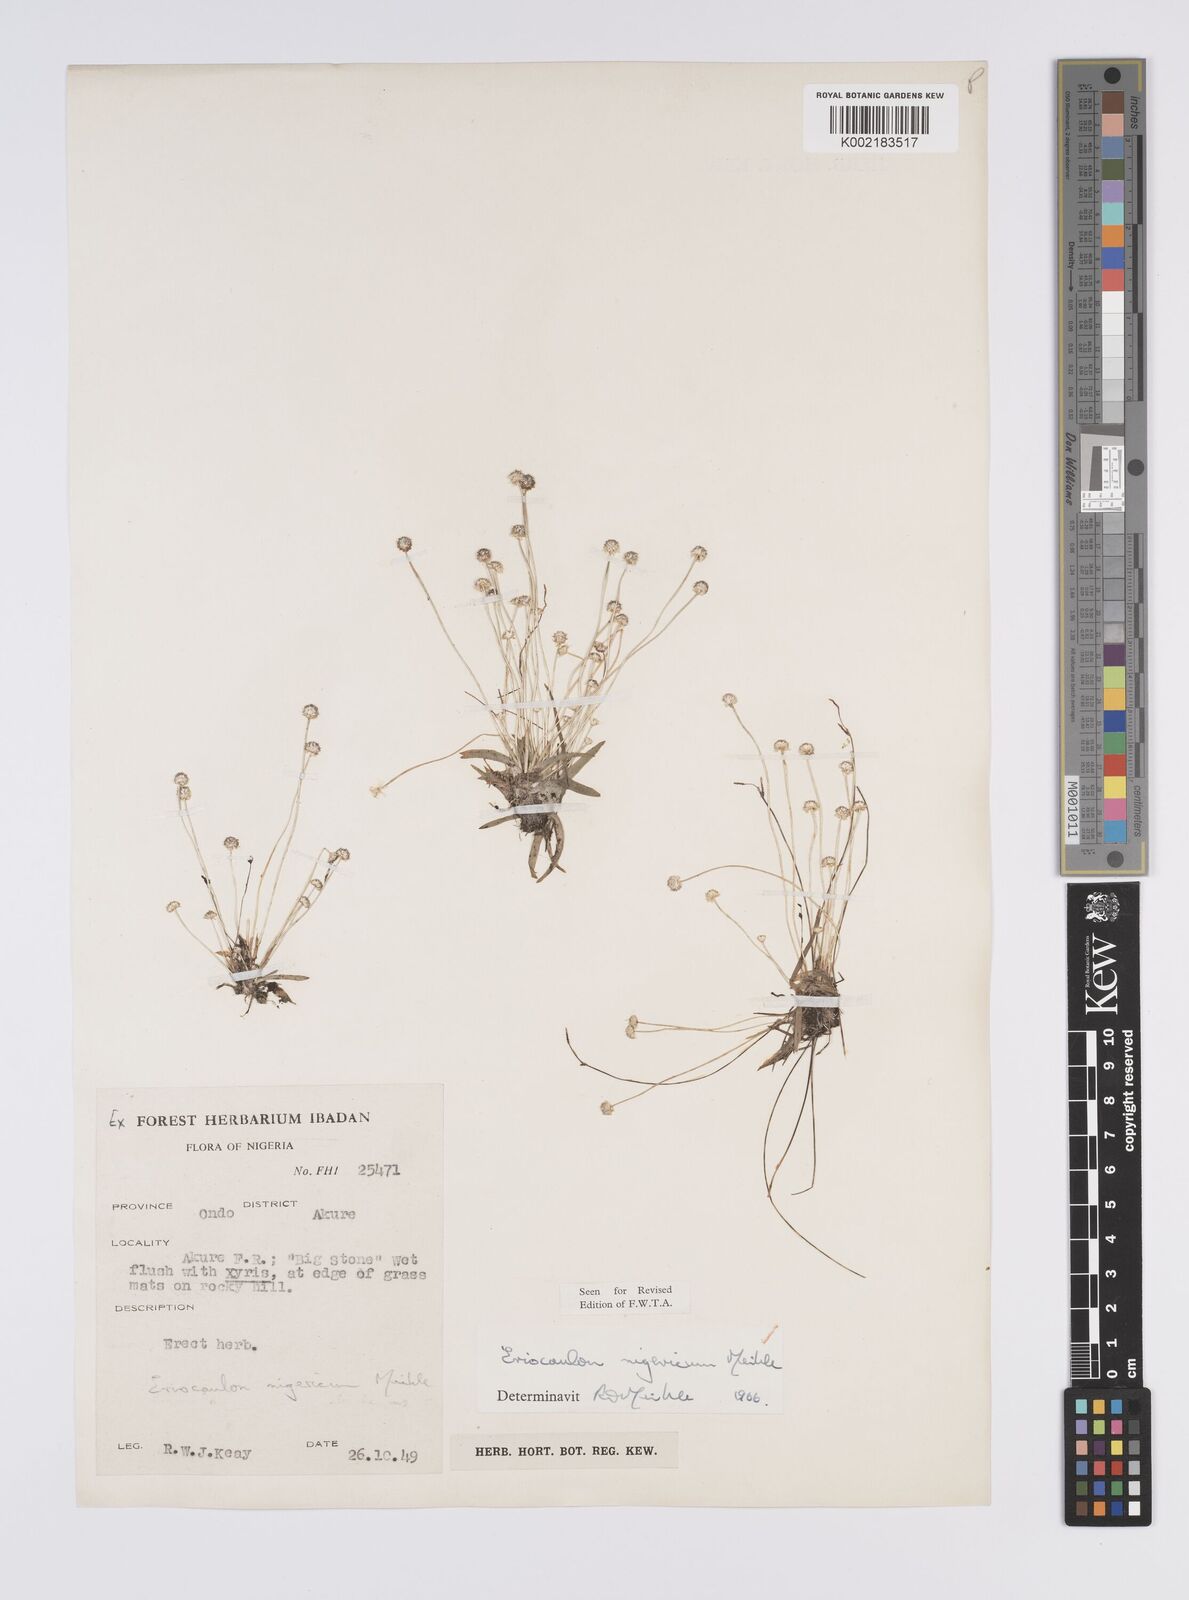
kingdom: Plantae
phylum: Tracheophyta
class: Liliopsida
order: Poales
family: Eriocaulaceae
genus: Eriocaulon
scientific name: Eriocaulon nigericum
